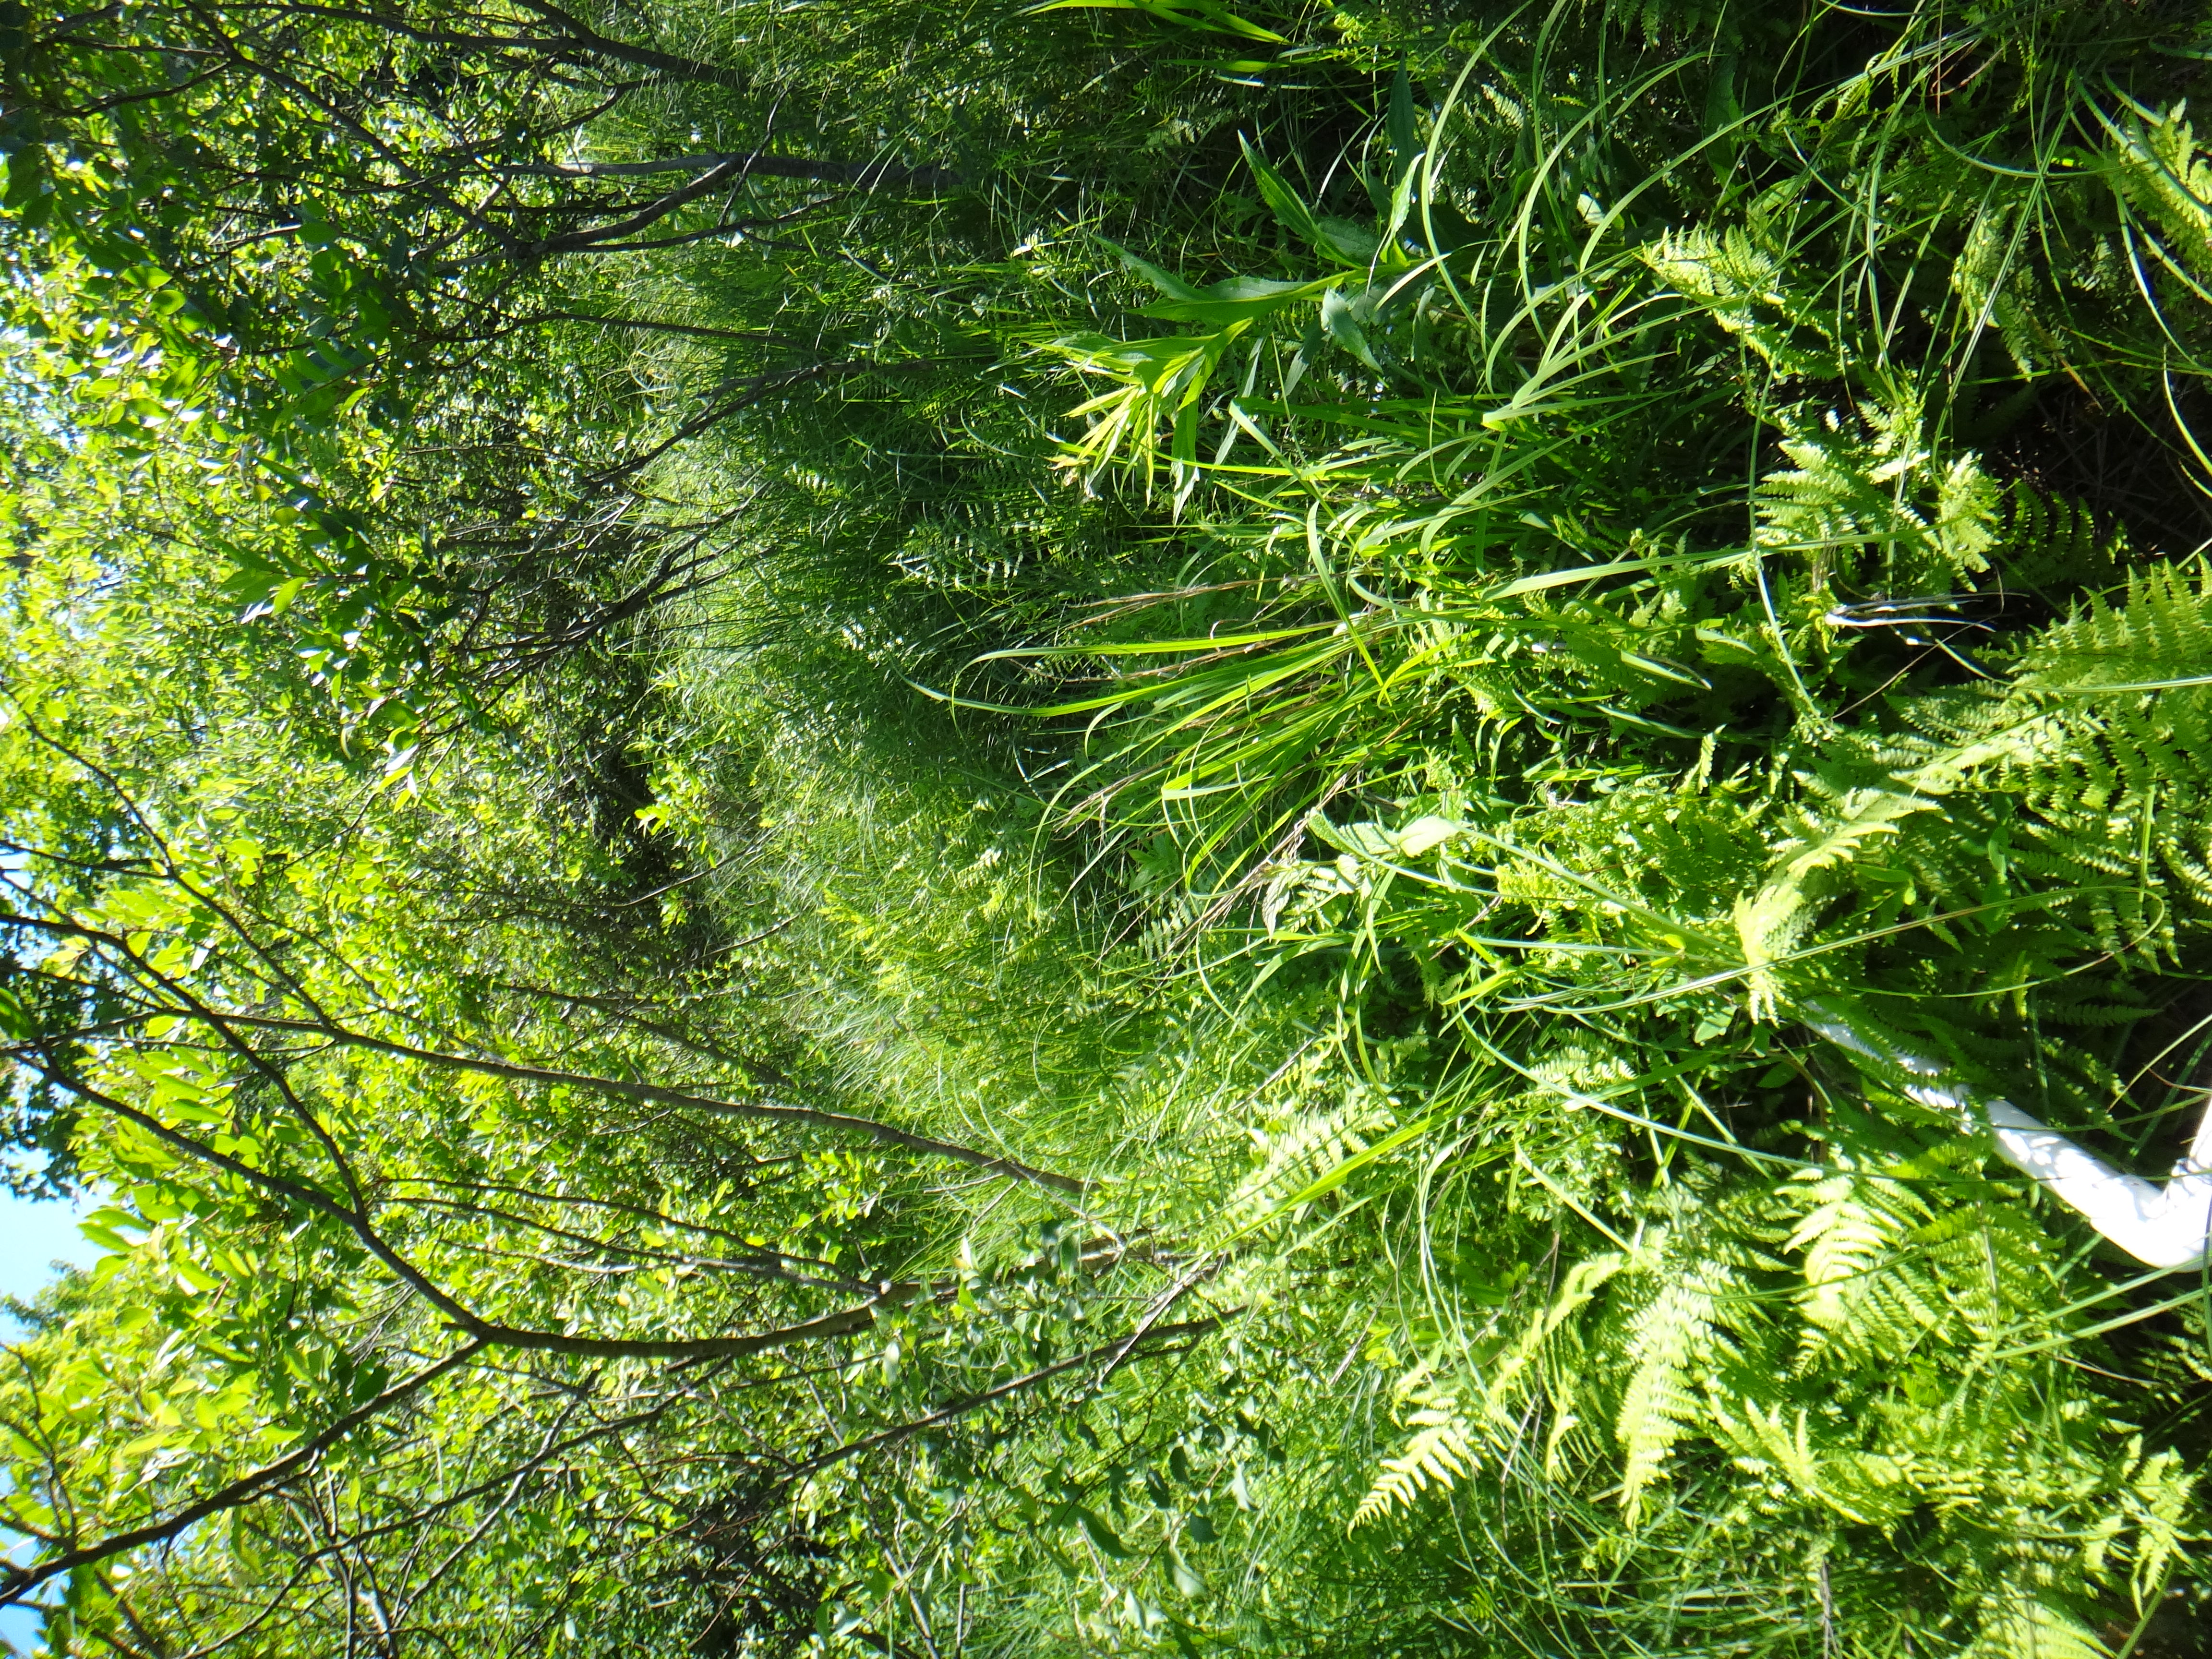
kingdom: Plantae
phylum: Tracheophyta
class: Magnoliopsida
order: Asterales
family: Asteraceae
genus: Symphyotrichum
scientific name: Symphyotrichum firmum
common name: Shining aster
